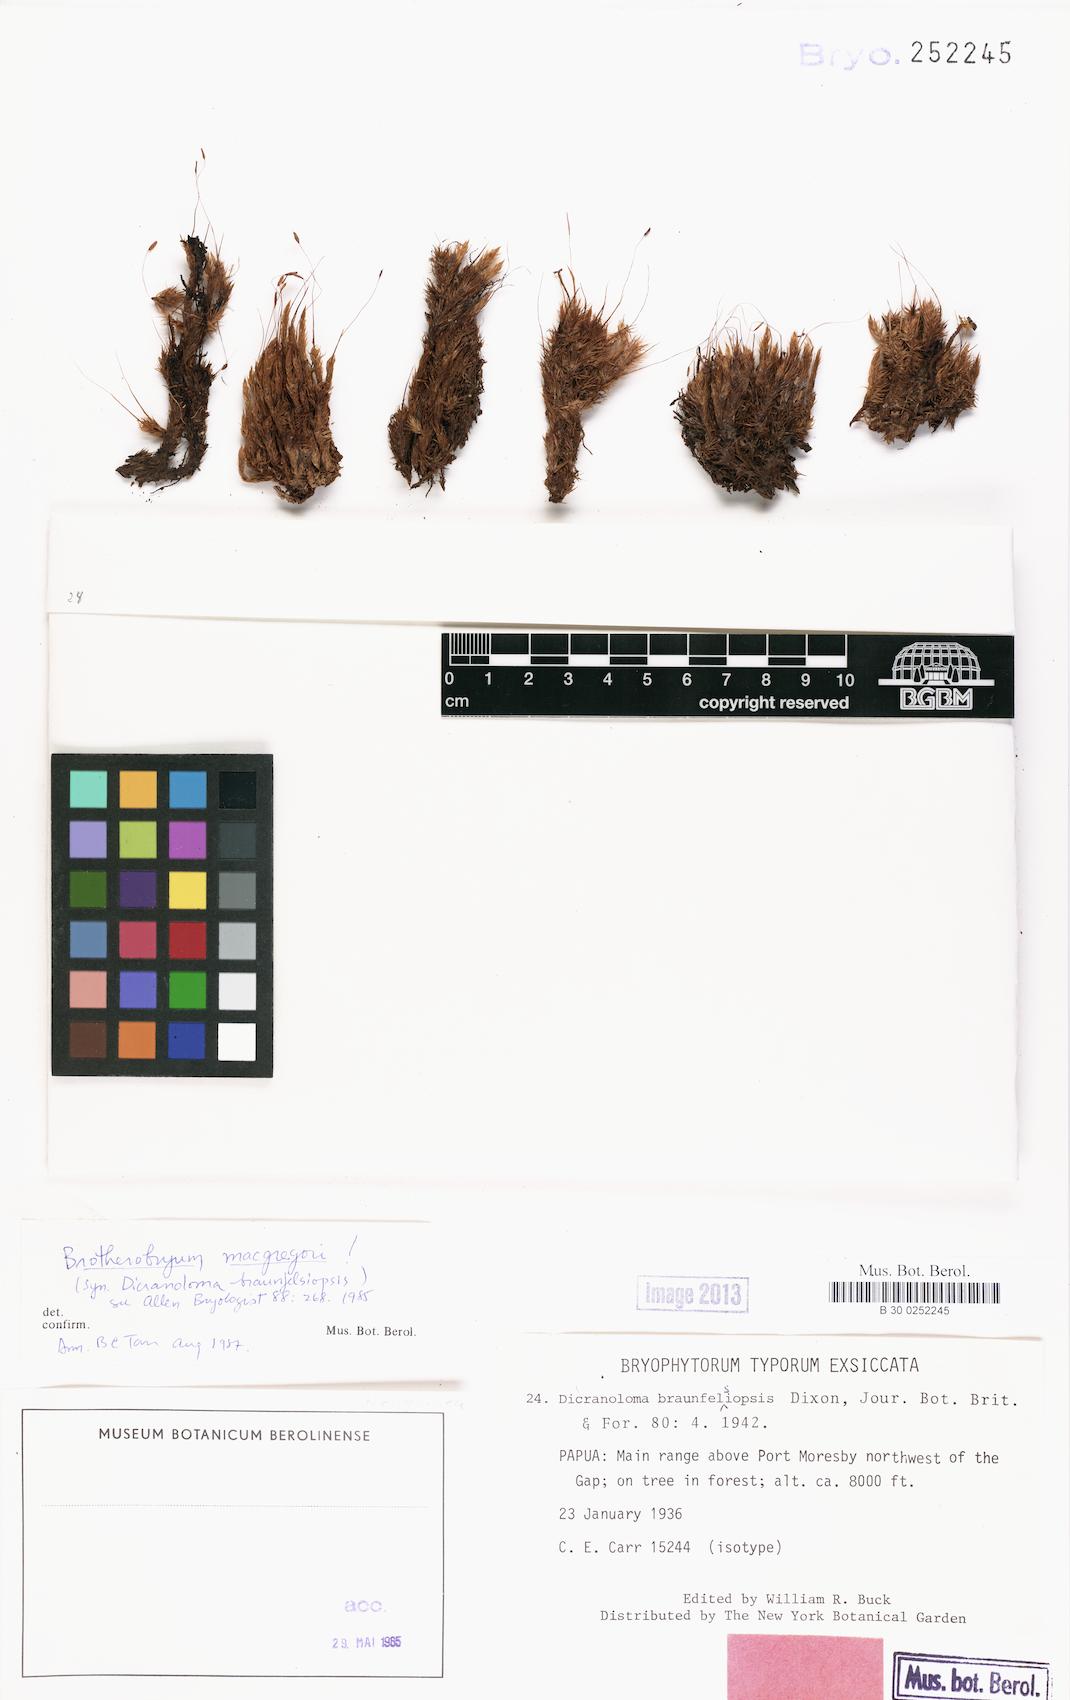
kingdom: Plantae
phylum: Bryophyta
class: Bryopsida
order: Dicranales
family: Dicranaceae
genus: Brotherobryum
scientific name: Brotherobryum macgregorii
